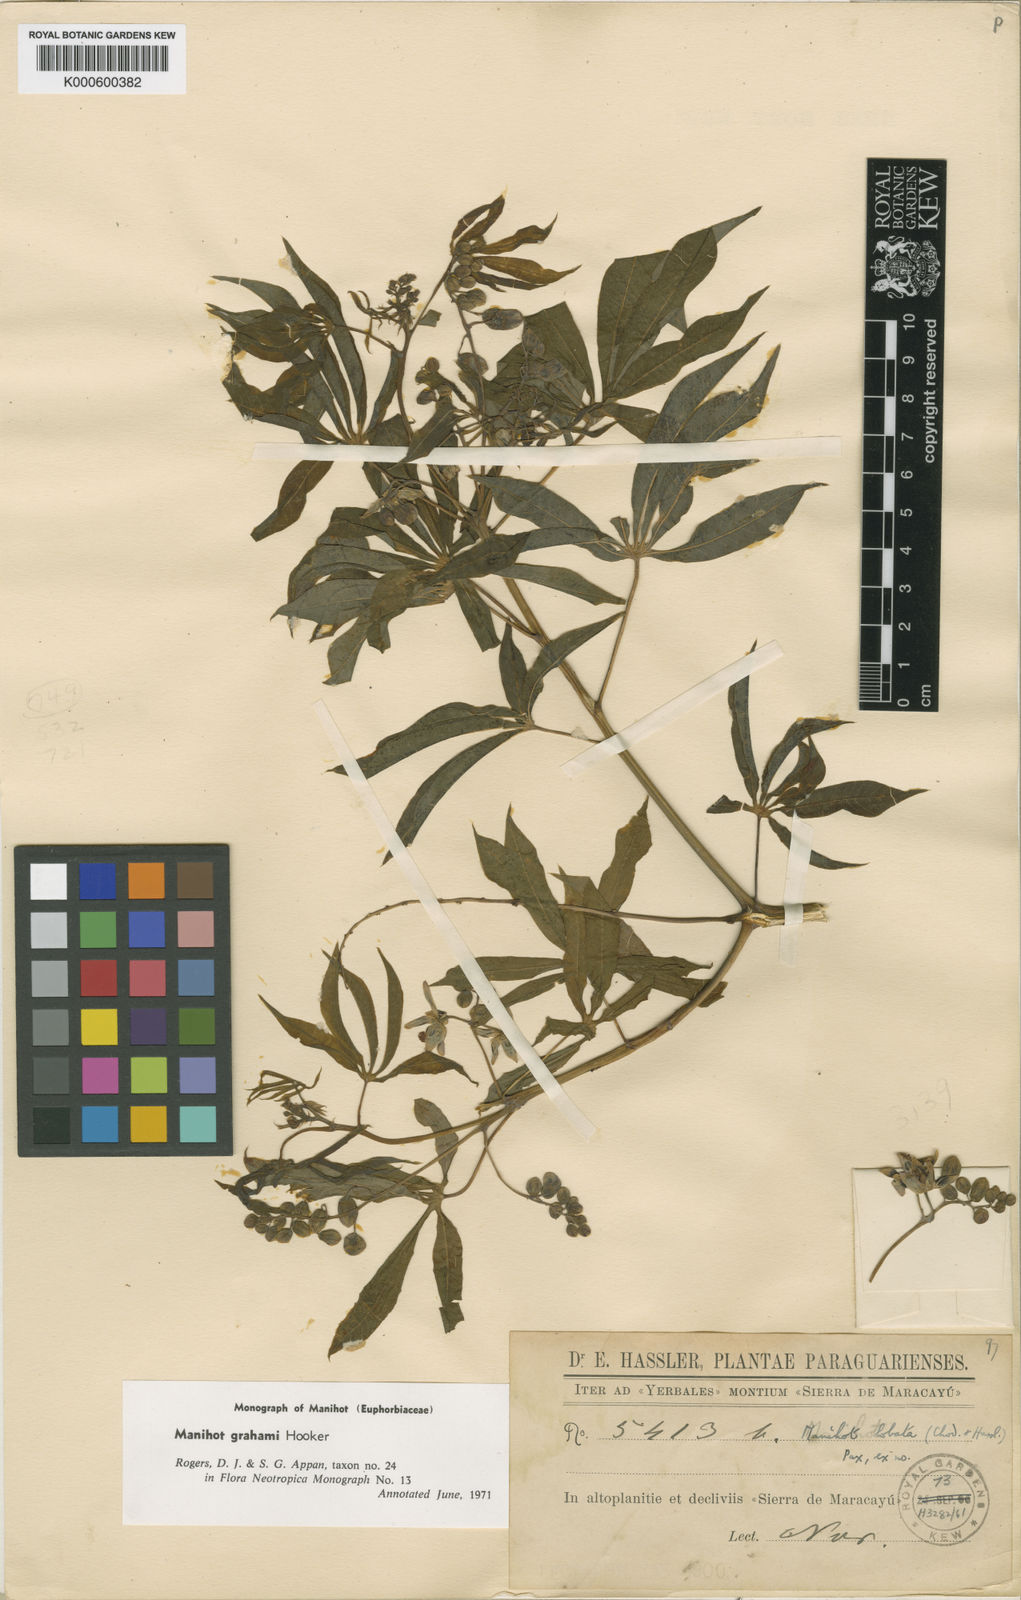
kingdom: Plantae
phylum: Tracheophyta
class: Magnoliopsida
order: Malpighiales
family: Euphorbiaceae
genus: Manihot
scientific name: Manihot grahamii
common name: Graham's manihot
